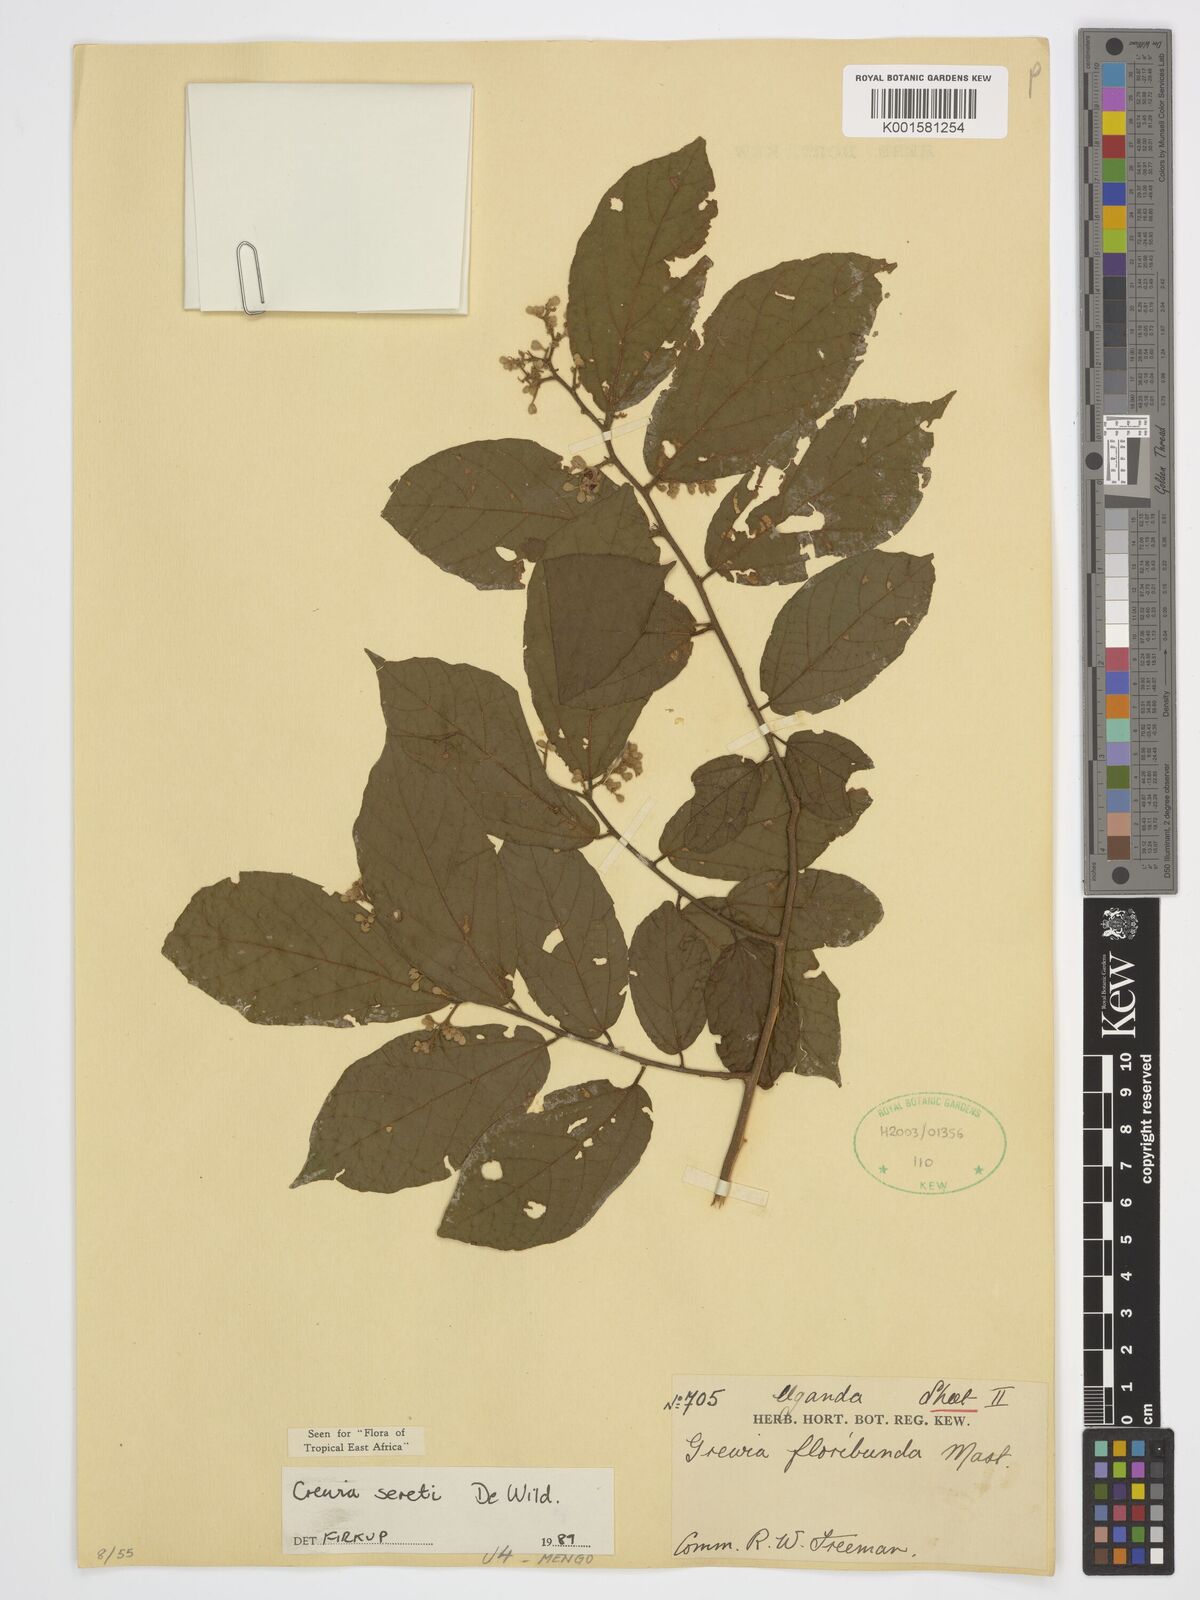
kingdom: Plantae
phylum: Tracheophyta
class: Magnoliopsida
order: Malvales
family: Malvaceae
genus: Microcos
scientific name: Microcos seretii
